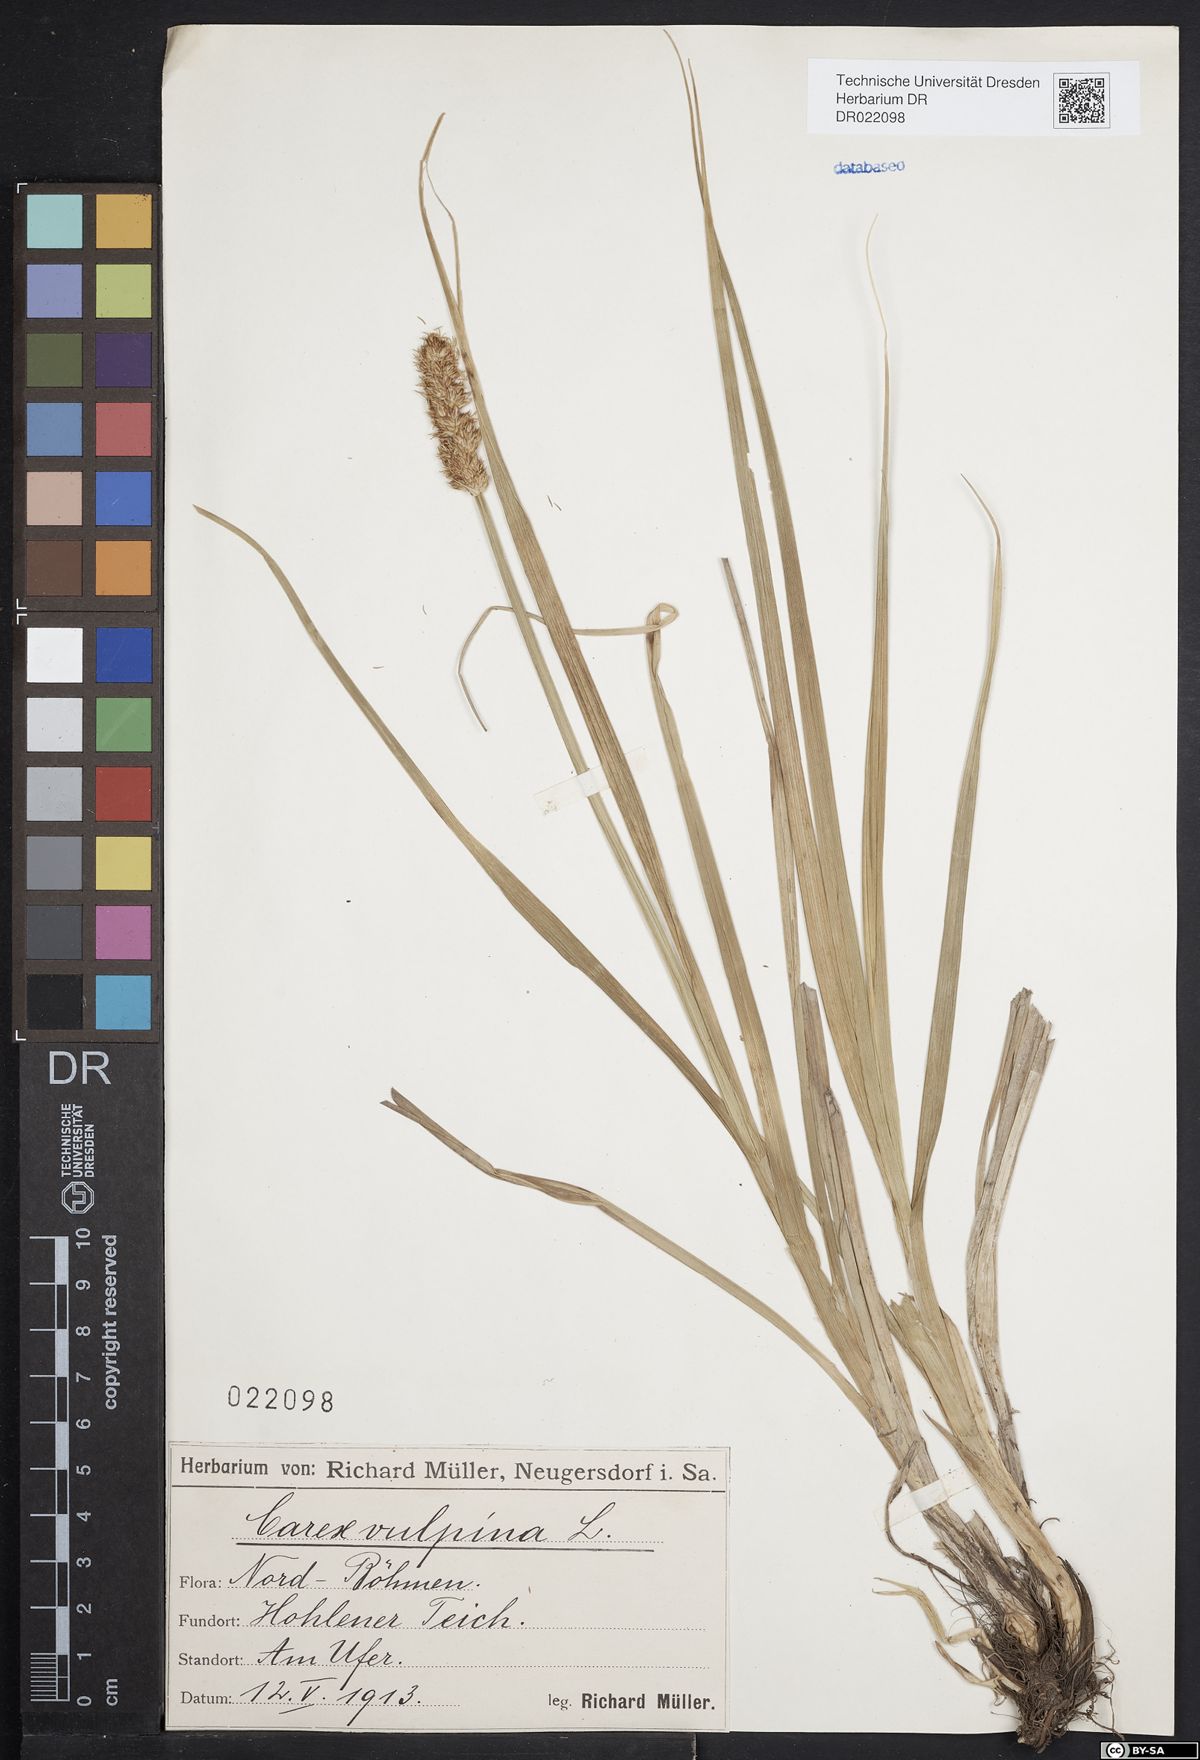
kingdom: Plantae
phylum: Tracheophyta
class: Liliopsida
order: Poales
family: Cyperaceae
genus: Carex
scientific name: Carex vulpina
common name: True fox-sedge
